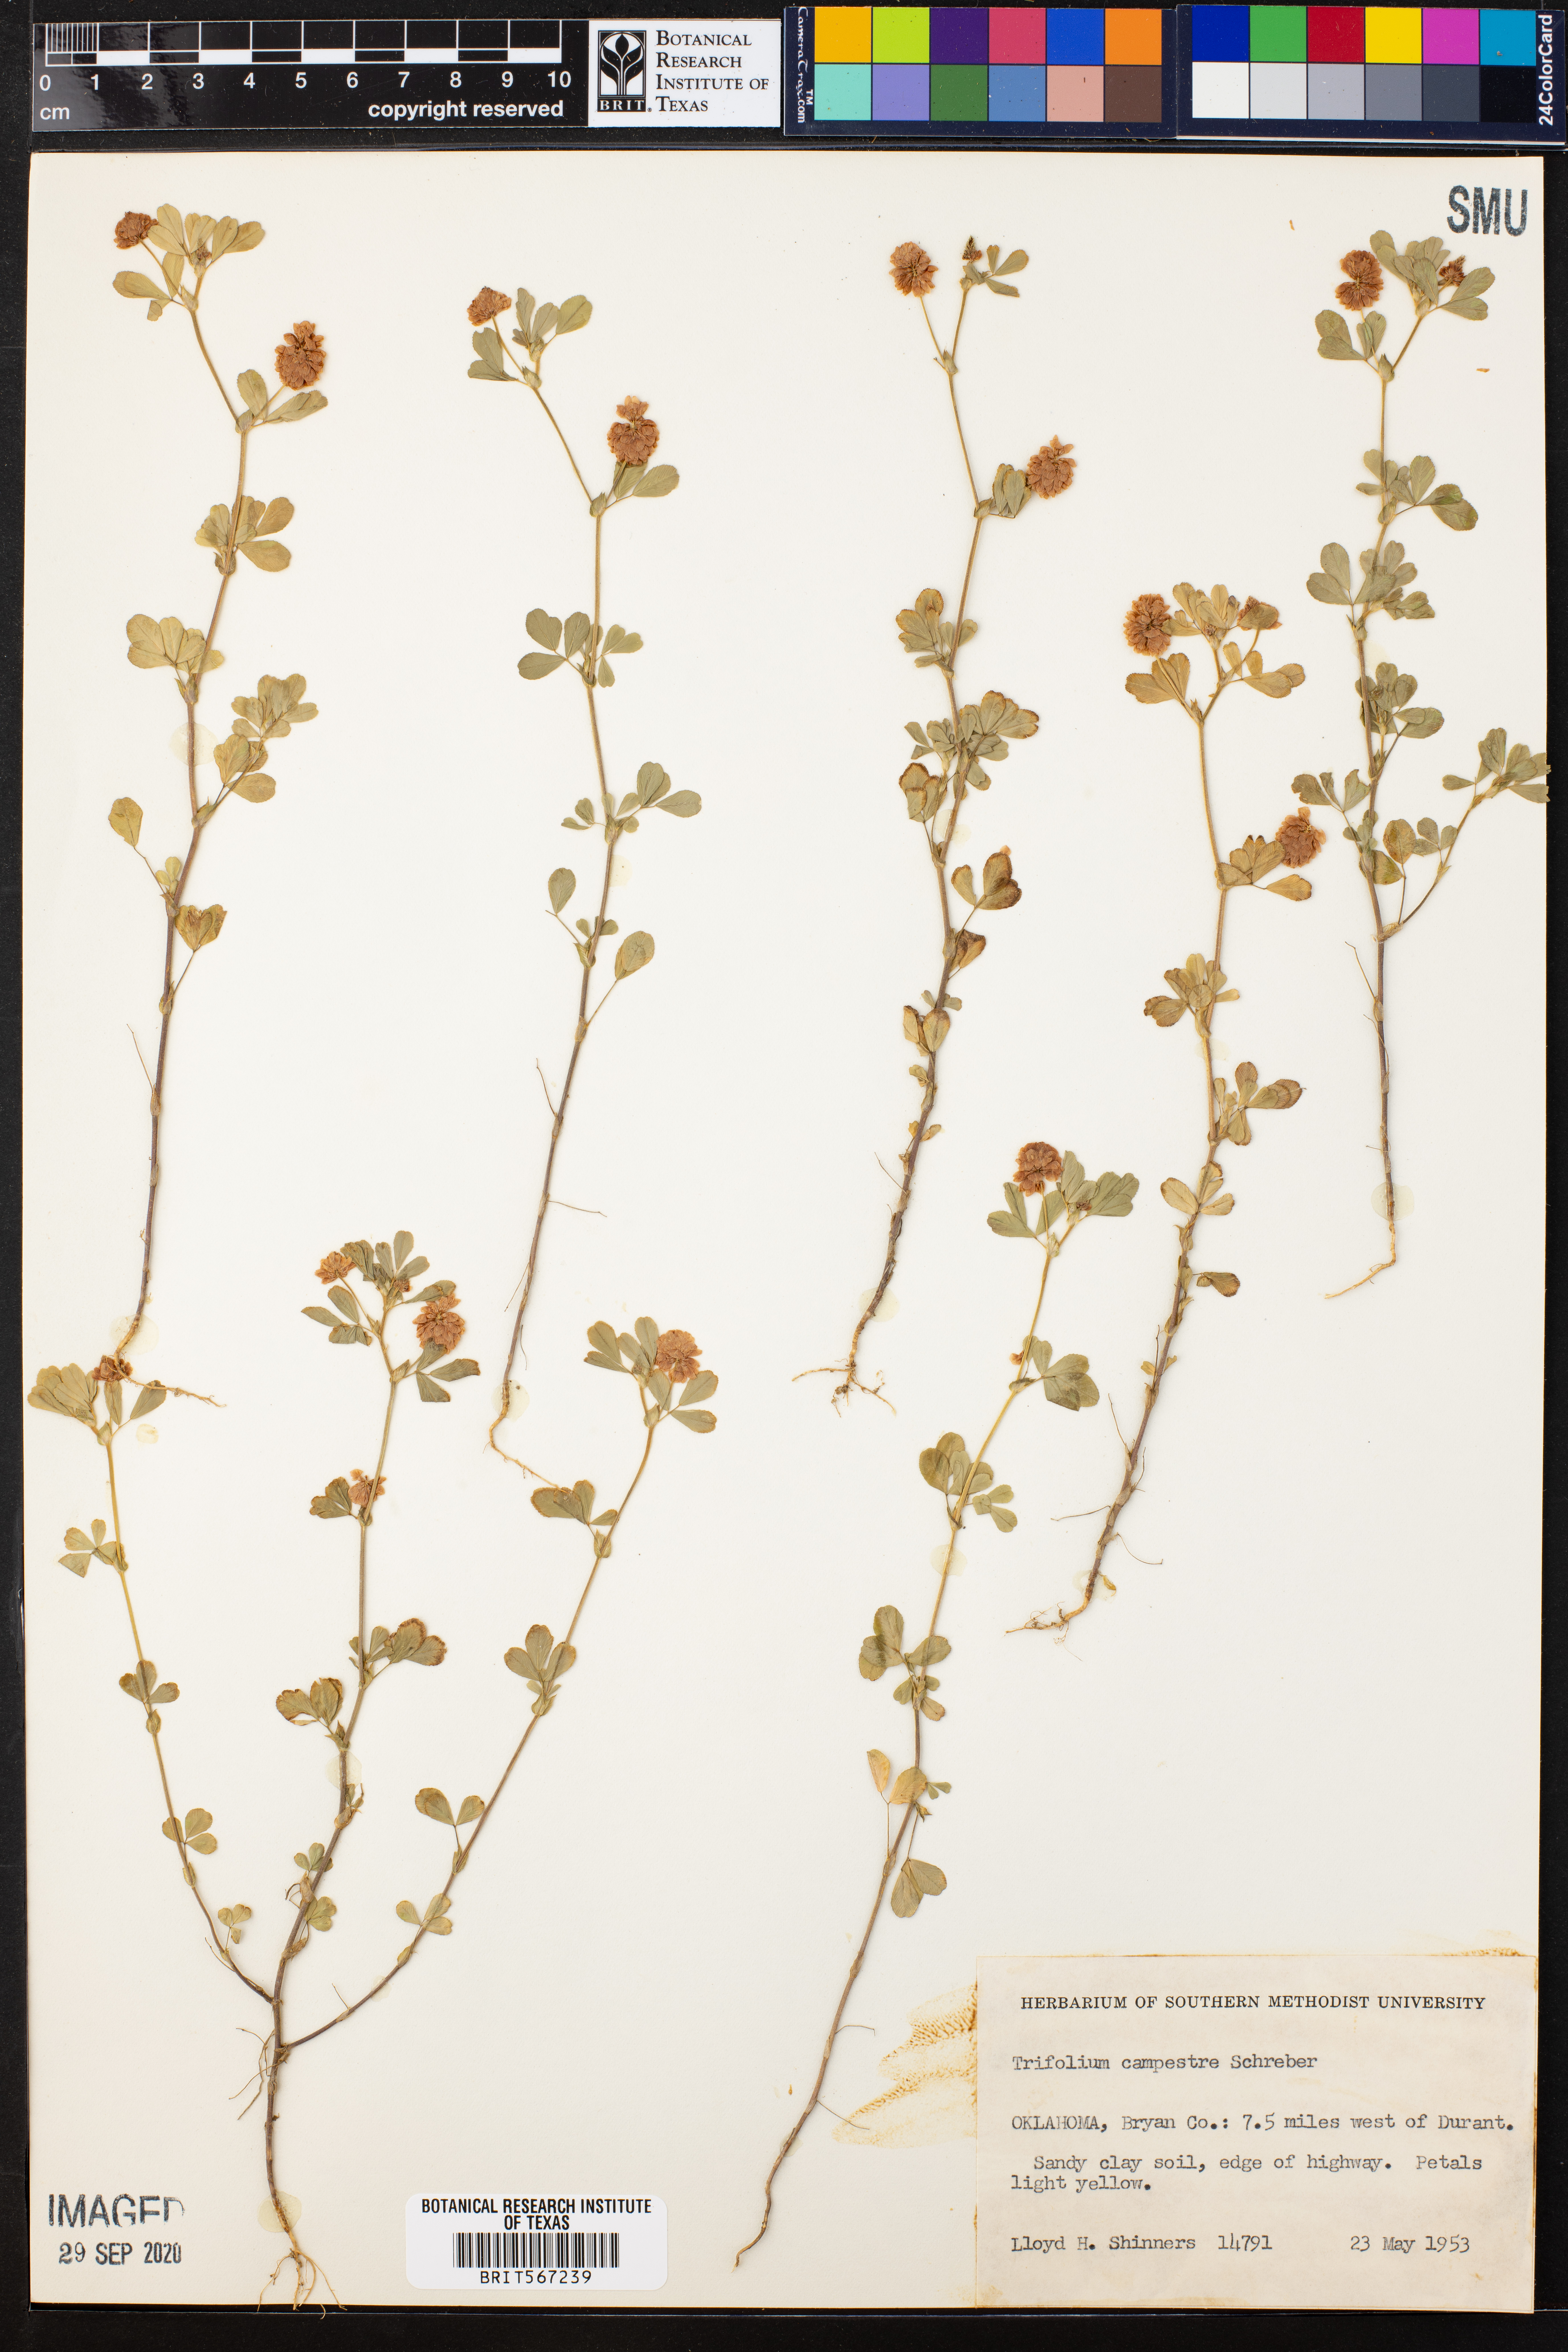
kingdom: Plantae
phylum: Tracheophyta
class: Magnoliopsida
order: Fabales
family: Fabaceae
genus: Trifolium
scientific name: Trifolium campestre
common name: Field clover
